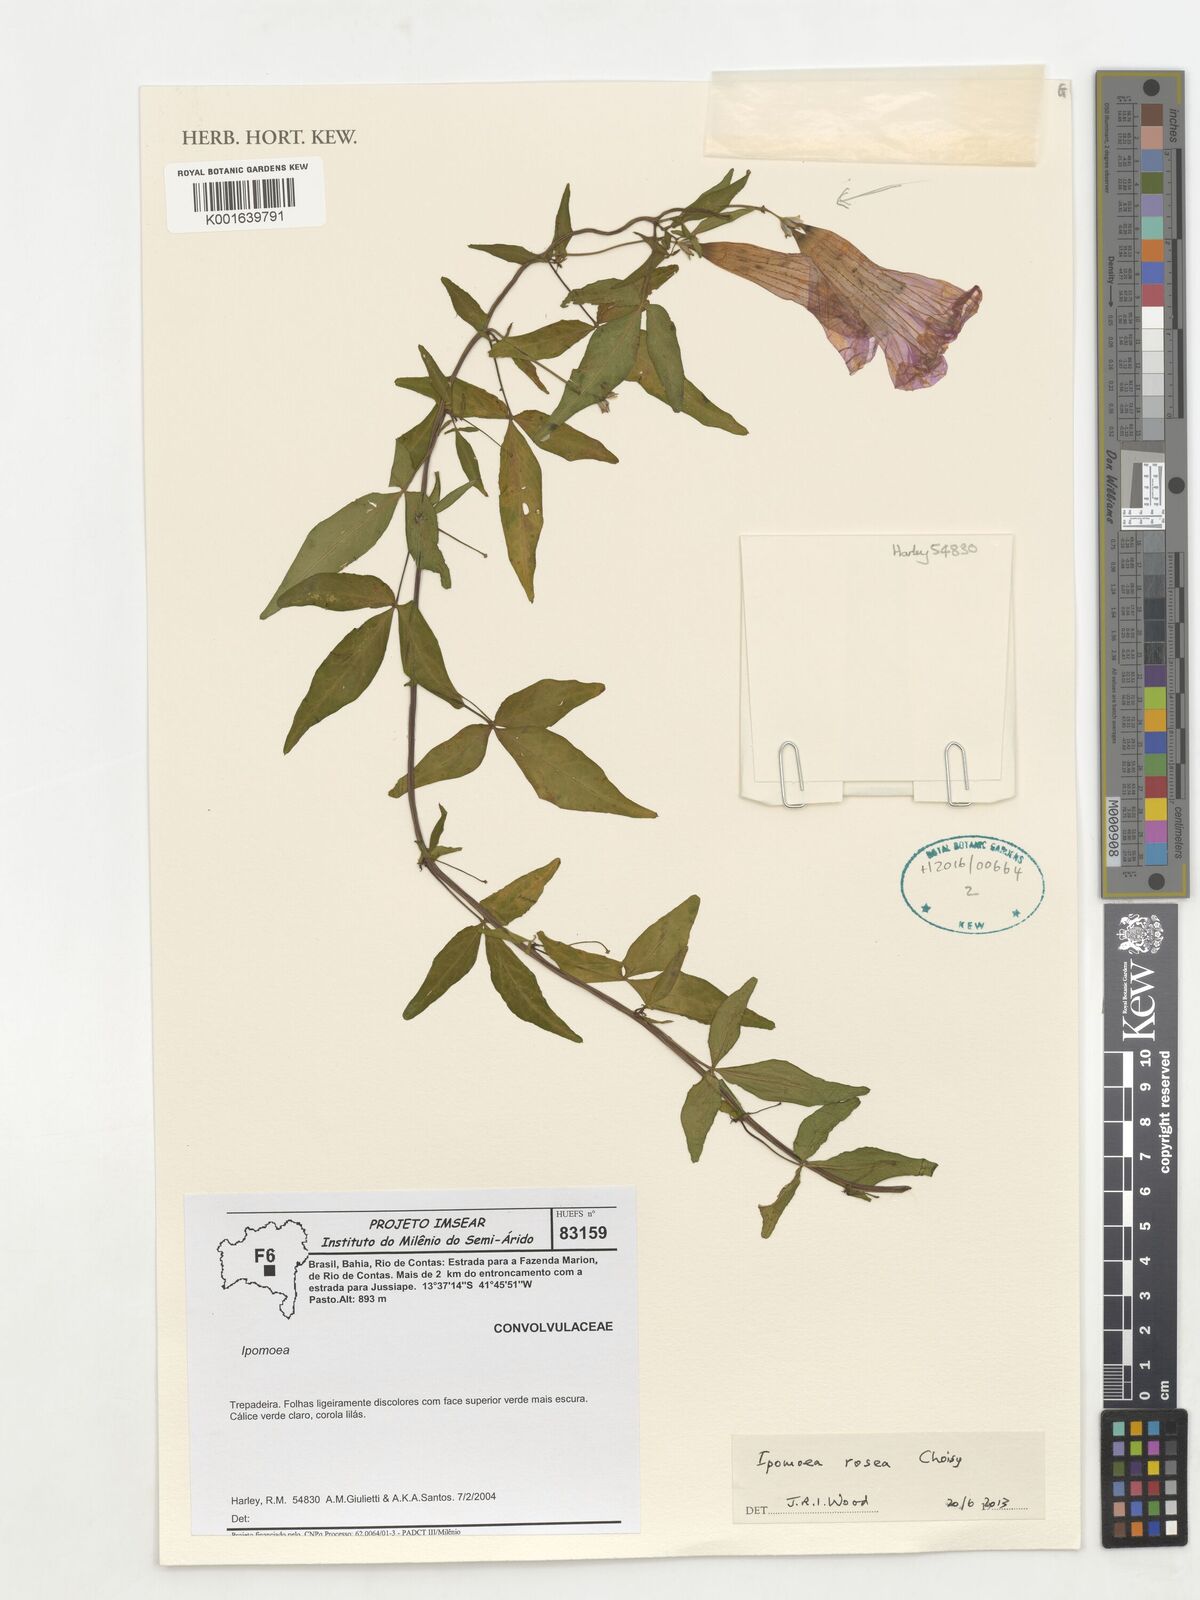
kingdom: Plantae
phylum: Tracheophyta
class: Magnoliopsida
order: Solanales
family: Convolvulaceae
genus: Ipomoea
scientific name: Ipomoea rosea
